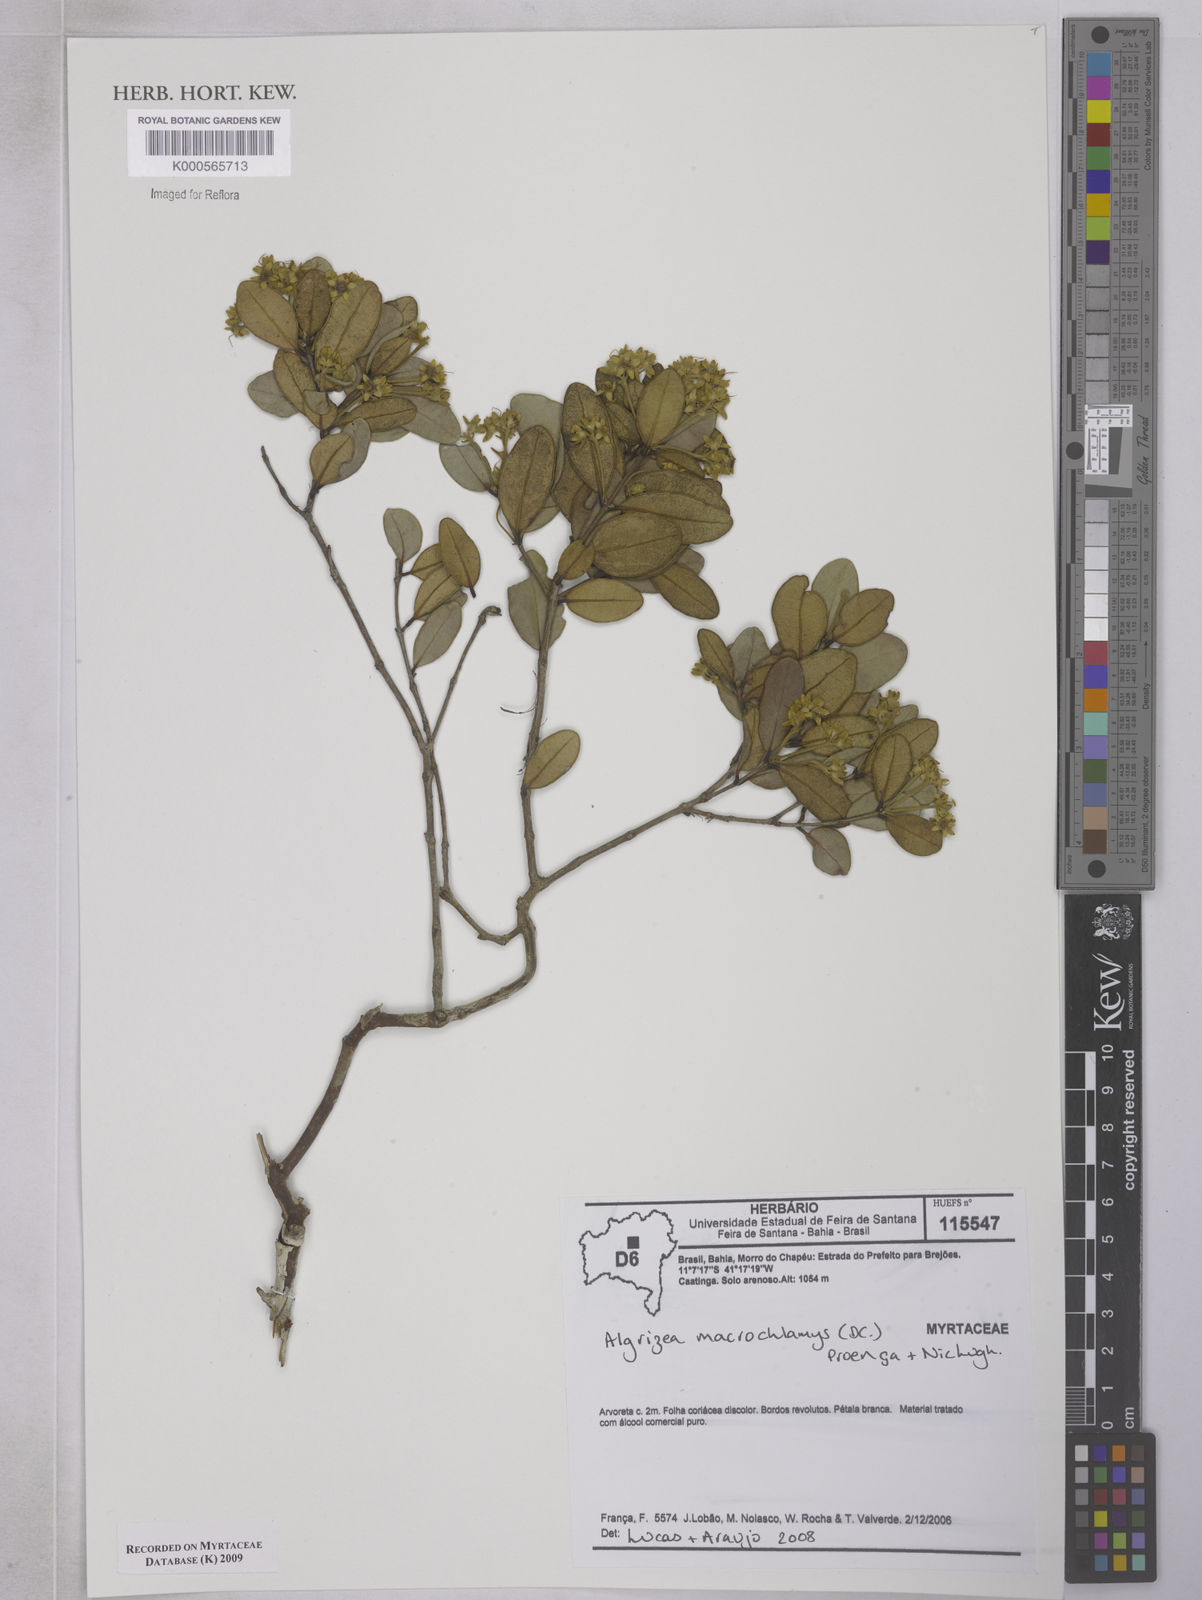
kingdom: Plantae
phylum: Tracheophyta
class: Magnoliopsida
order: Myrtales
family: Myrtaceae
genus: Algrizea
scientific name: Algrizea
